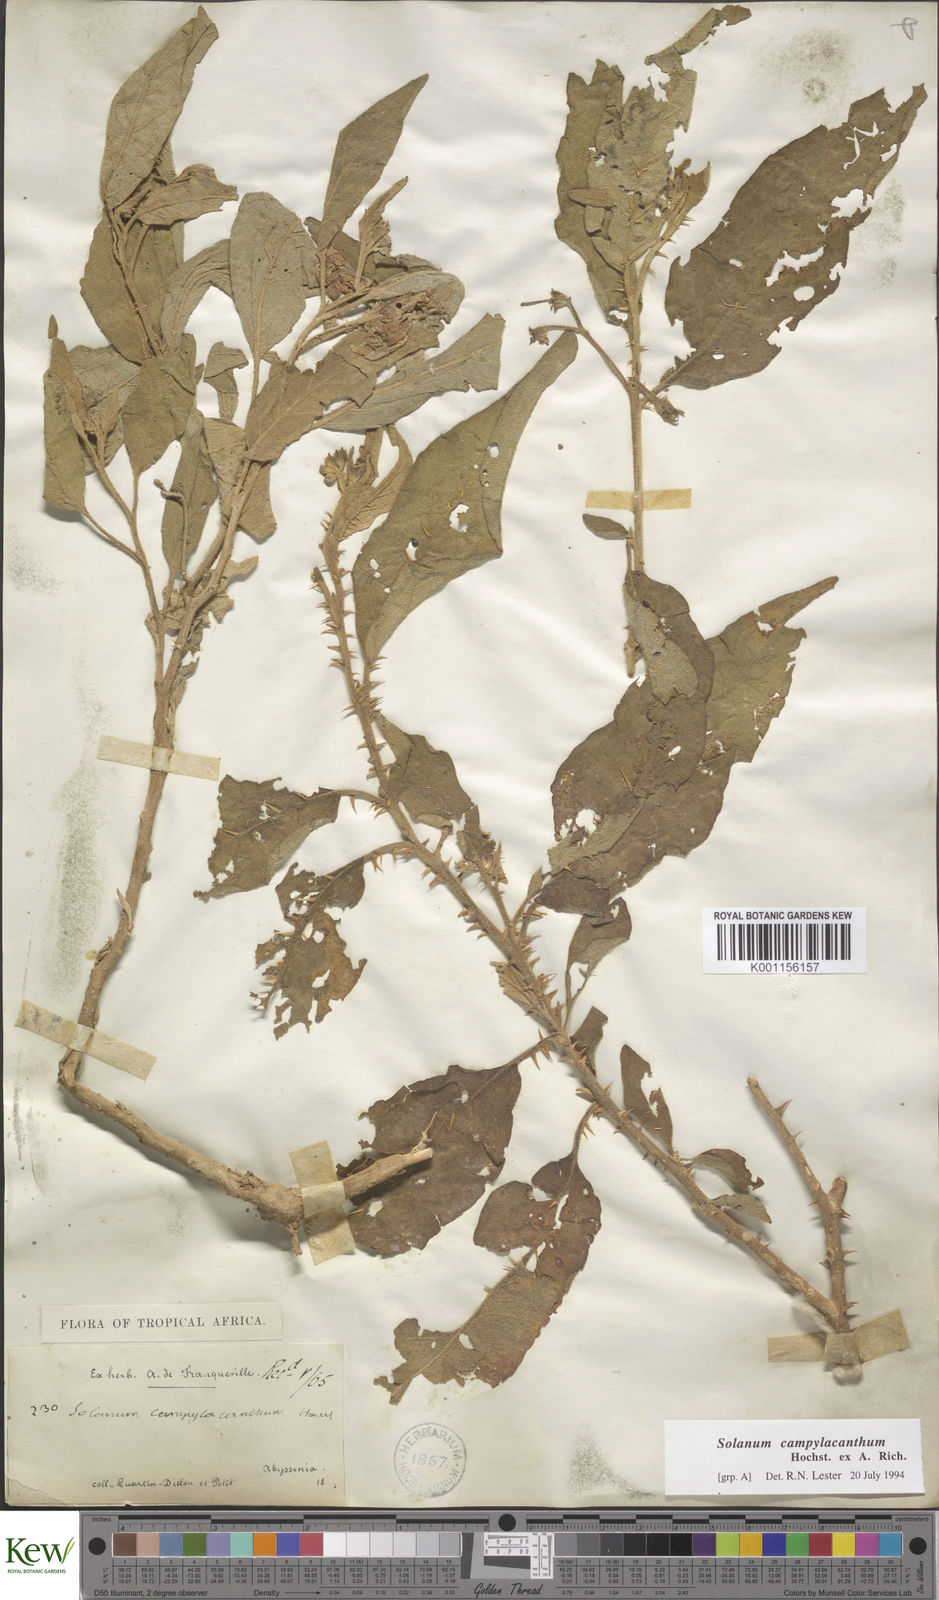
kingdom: Plantae
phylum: Tracheophyta
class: Magnoliopsida
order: Solanales
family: Solanaceae
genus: Solanum
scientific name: Solanum campylacanthum
